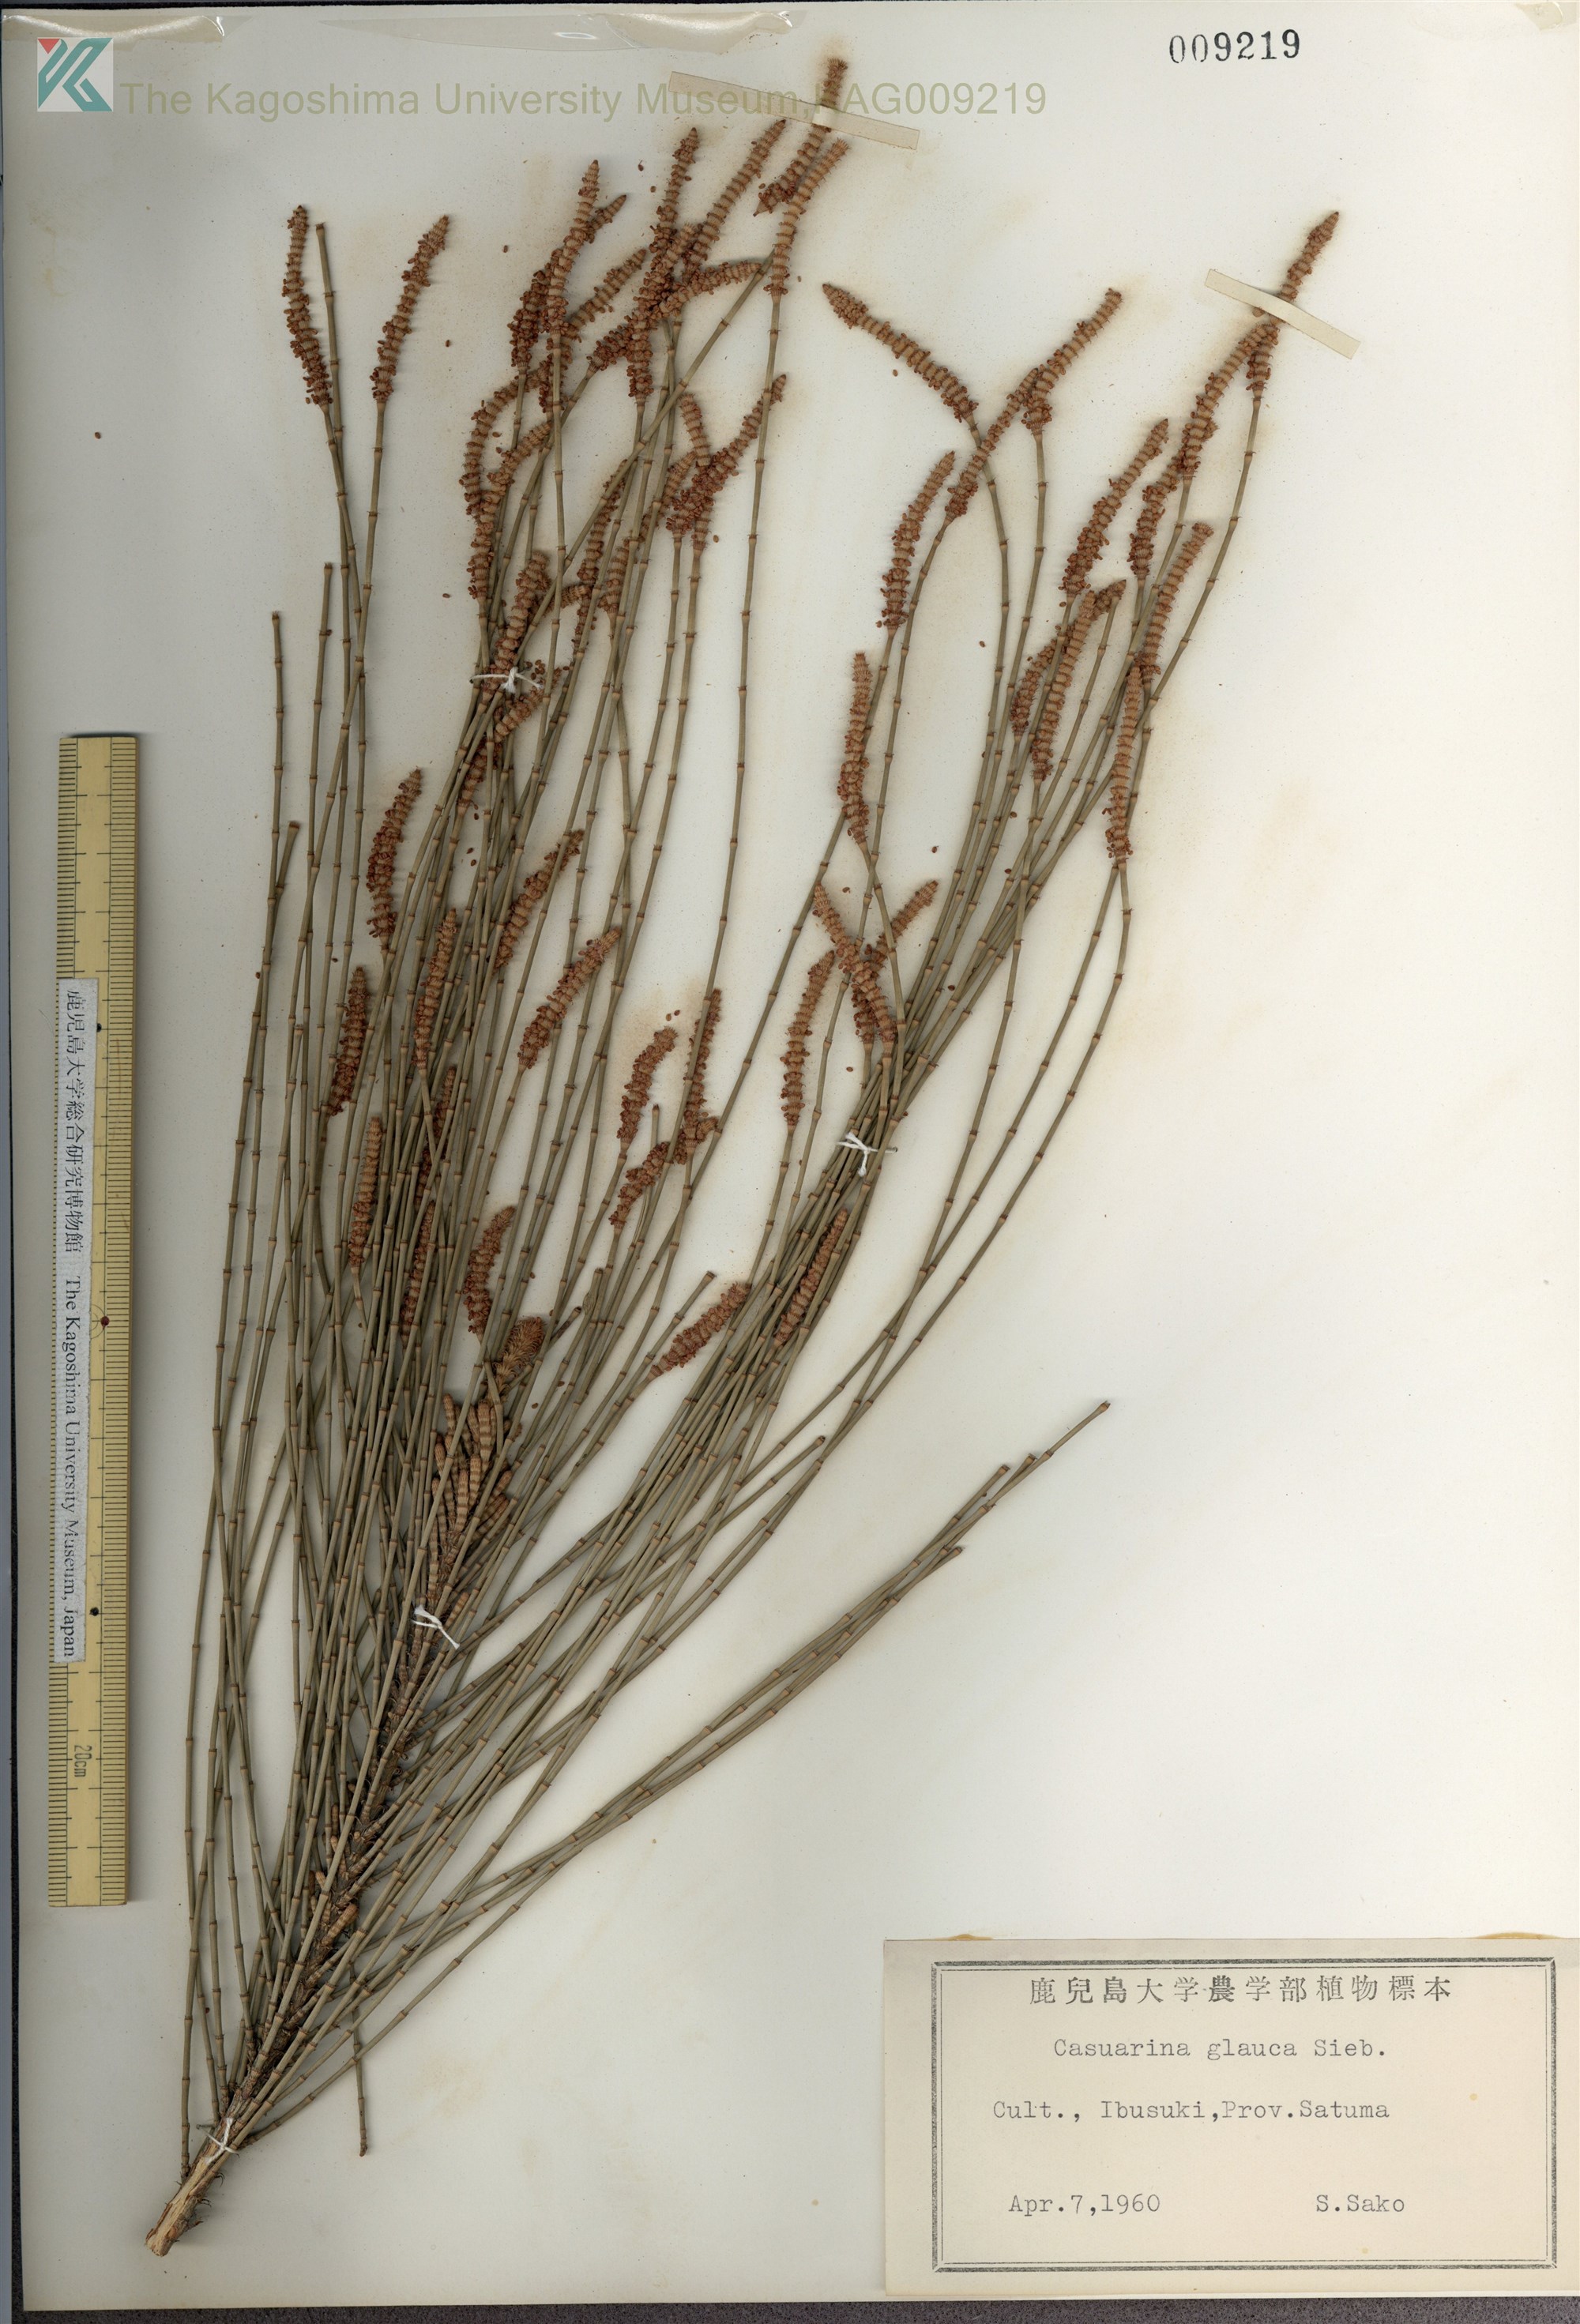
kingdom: Plantae
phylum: Tracheophyta
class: Magnoliopsida
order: Fagales
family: Casuarinaceae
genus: Casuarina
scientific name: Casuarina glauca
